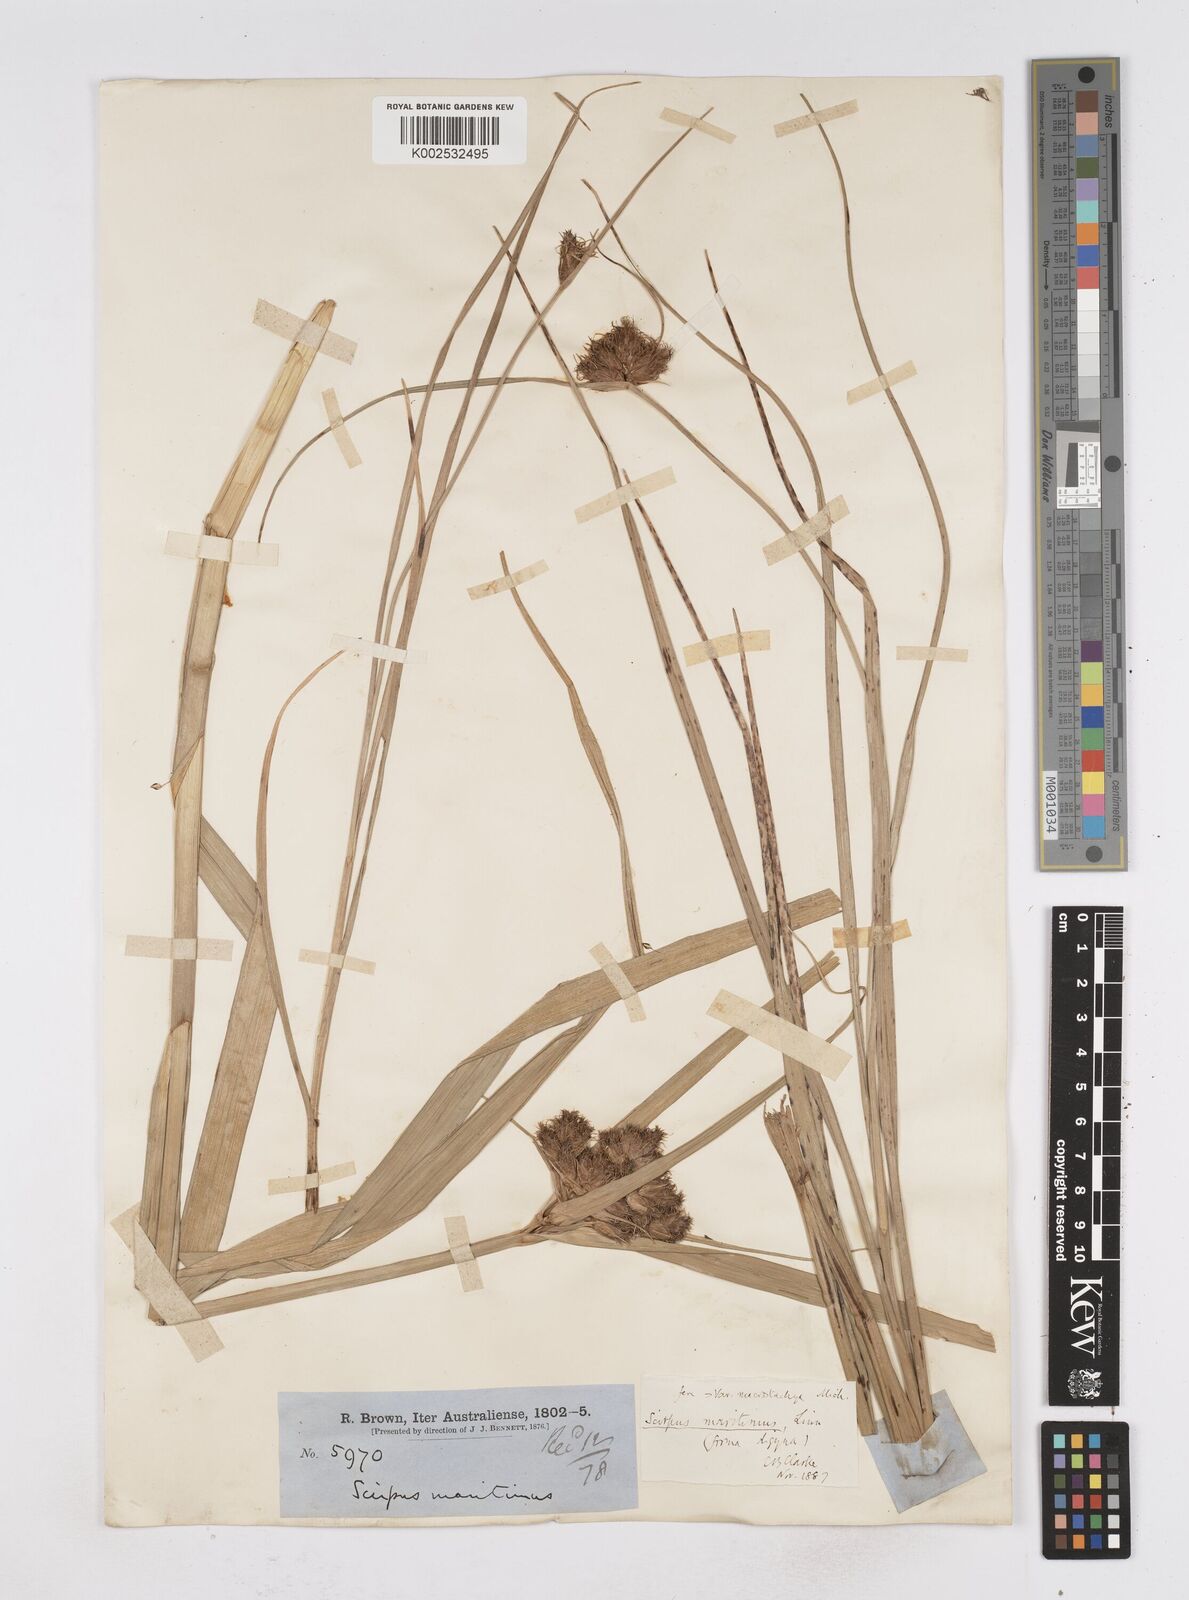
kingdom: Plantae
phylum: Tracheophyta
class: Liliopsida
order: Poales
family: Cyperaceae
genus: Bolboschoenus
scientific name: Bolboschoenus maritimus
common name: Sea club-rush
